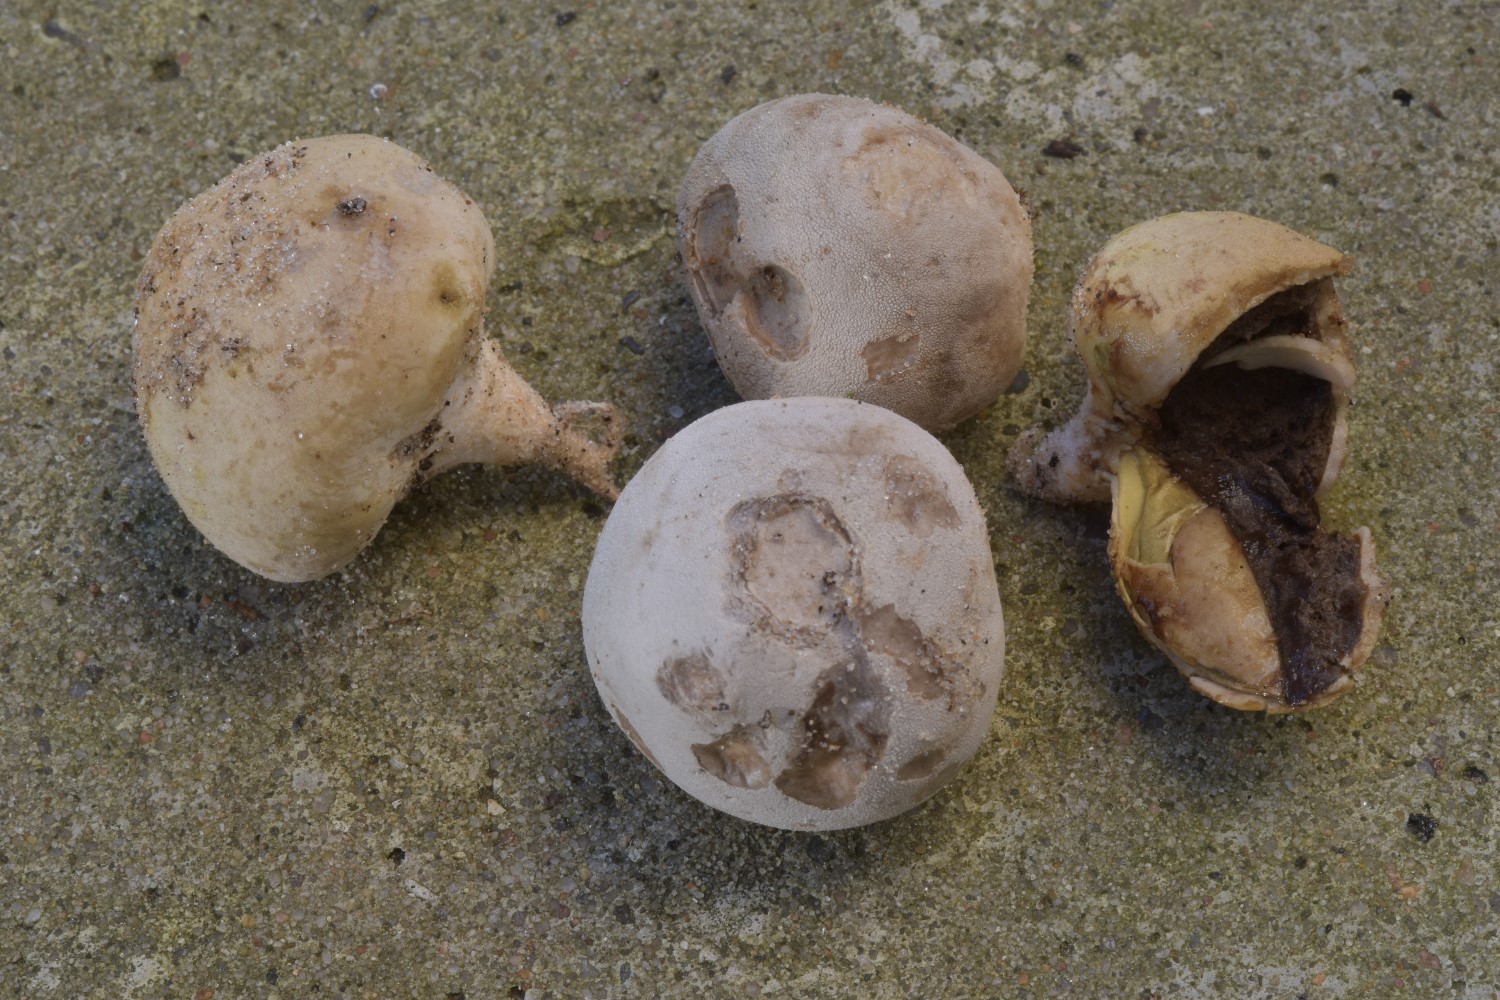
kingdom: Fungi
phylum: Basidiomycota
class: Agaricomycetes
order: Agaricales
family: Lycoperdaceae
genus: Bovista
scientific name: Bovista aestivalis
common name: klit-bovist
